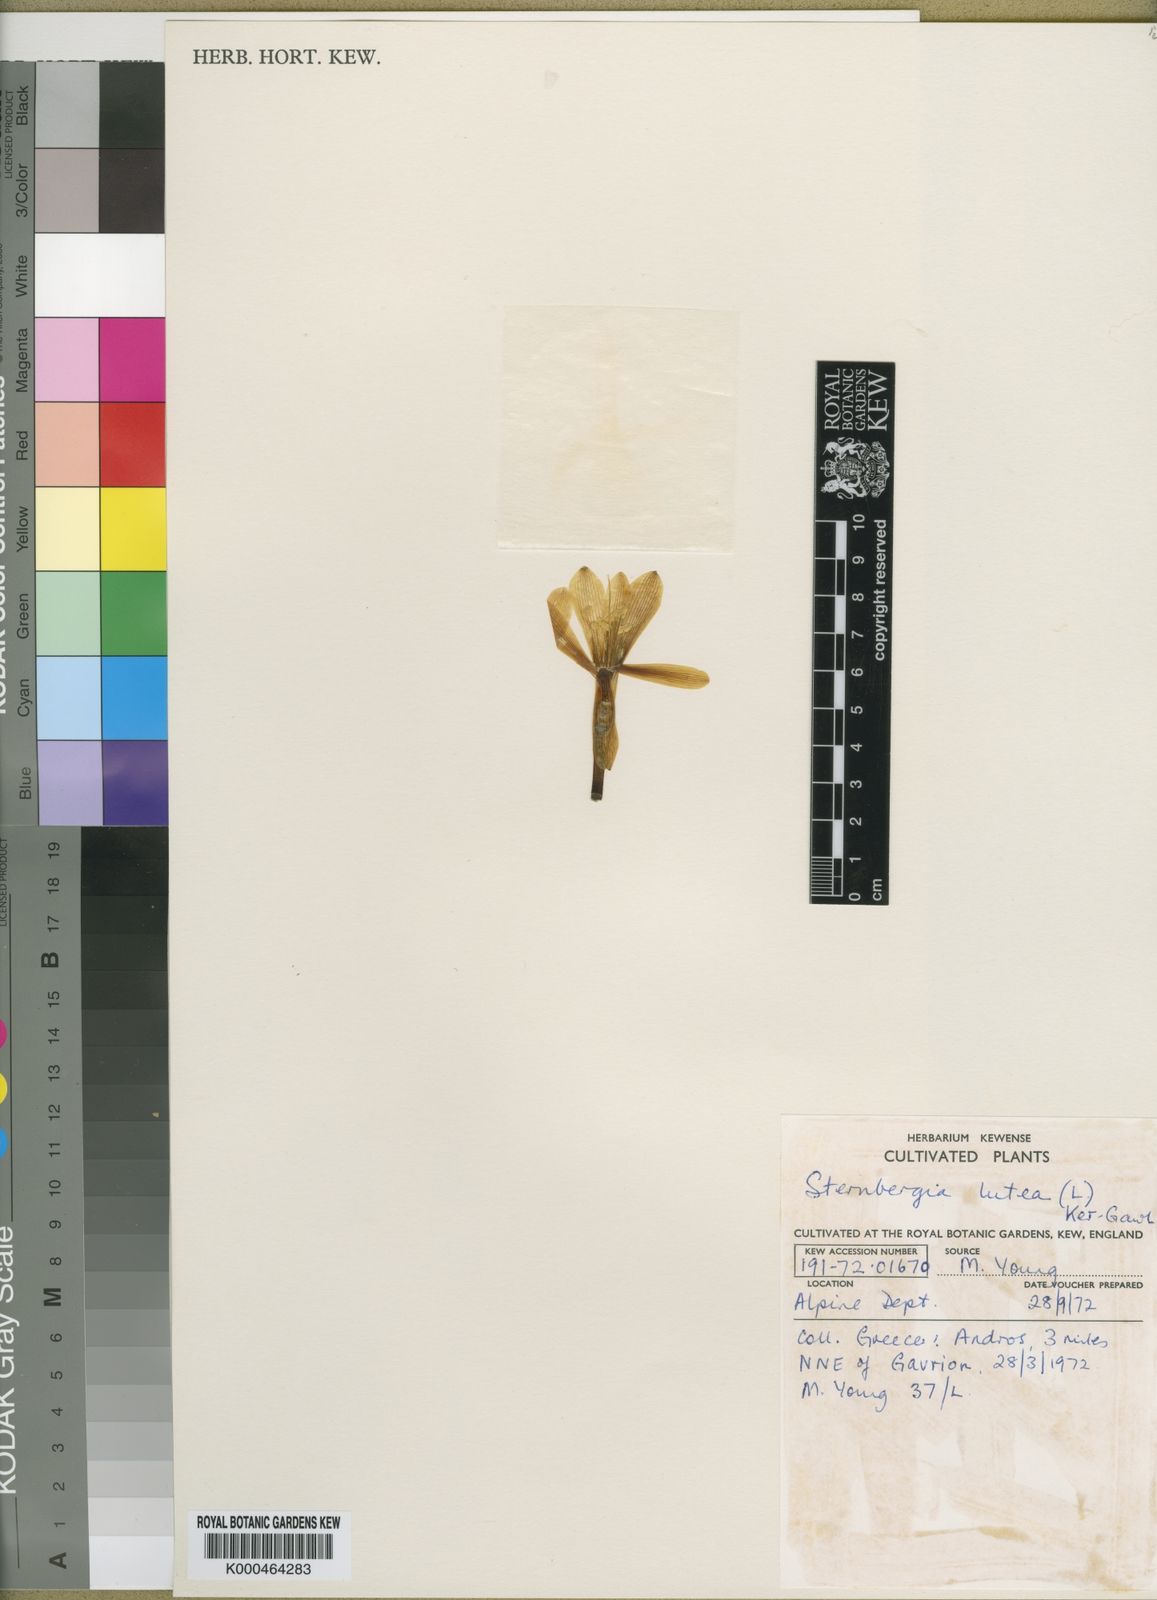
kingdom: Plantae
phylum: Tracheophyta
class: Liliopsida
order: Asparagales
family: Amaryllidaceae
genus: Sternbergia
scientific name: Sternbergia
